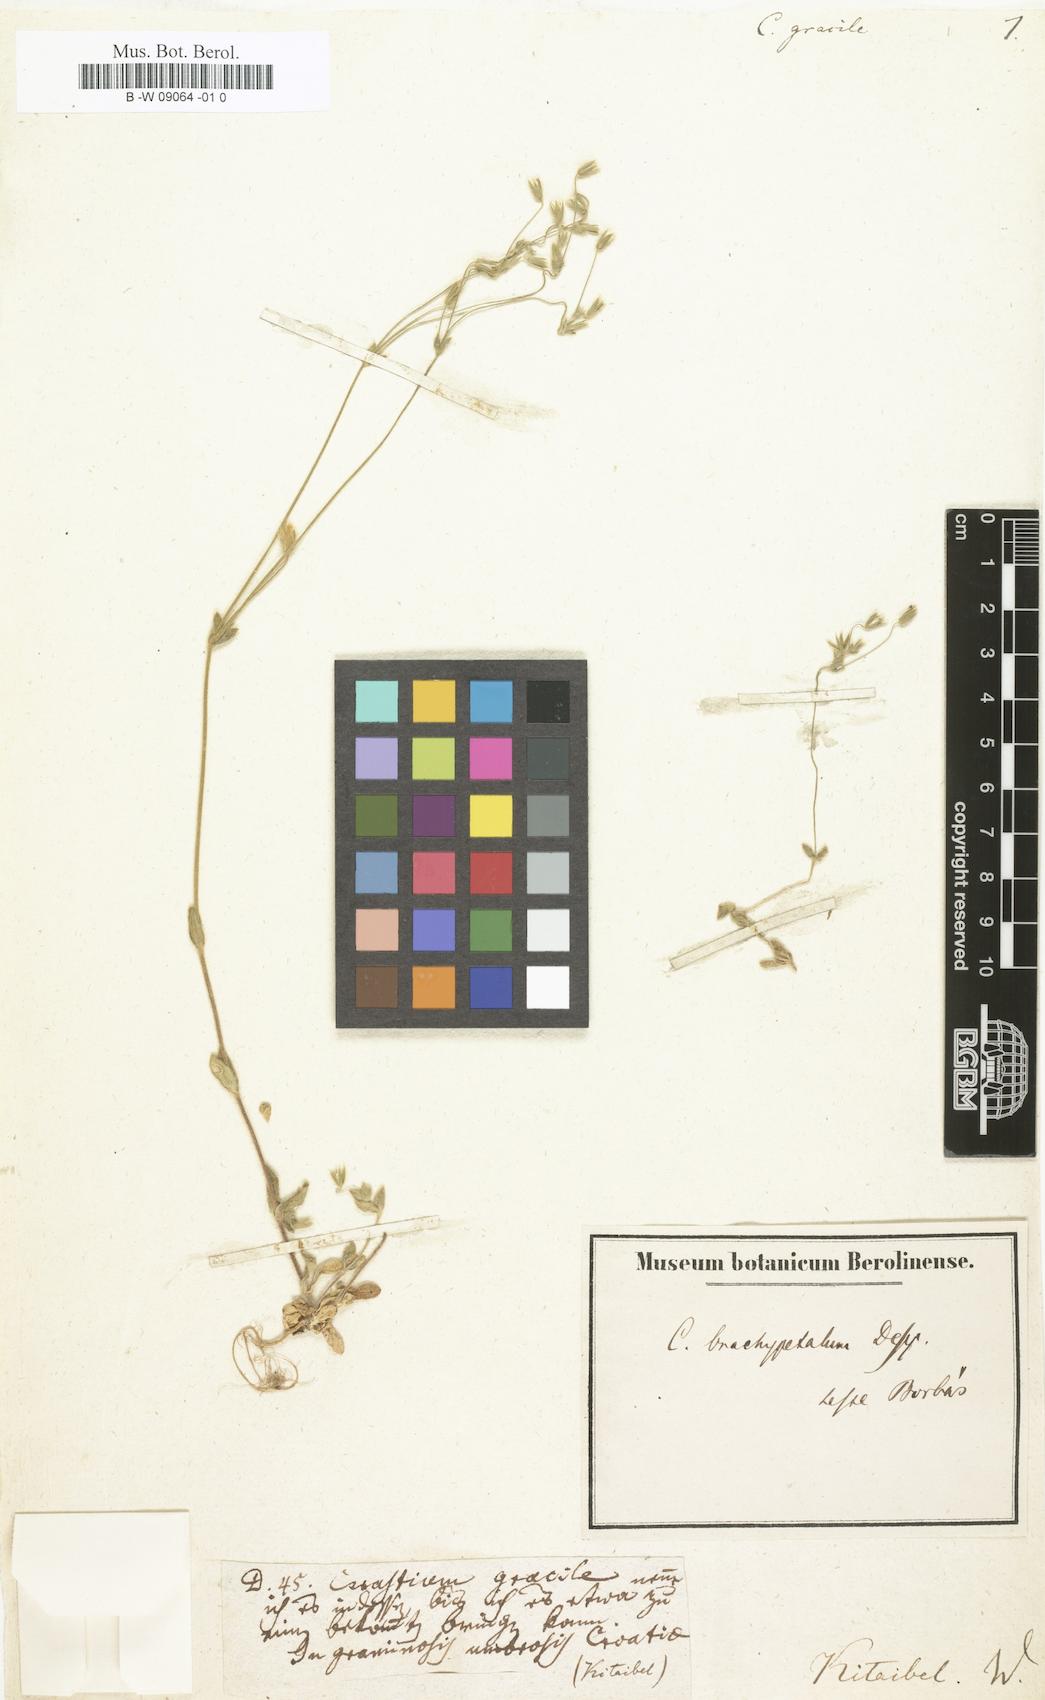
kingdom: Plantae
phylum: Tracheophyta
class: Magnoliopsida
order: Caryophyllales
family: Caryophyllaceae
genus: Cerastium
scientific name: Cerastium gracile
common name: Slender chickweed
